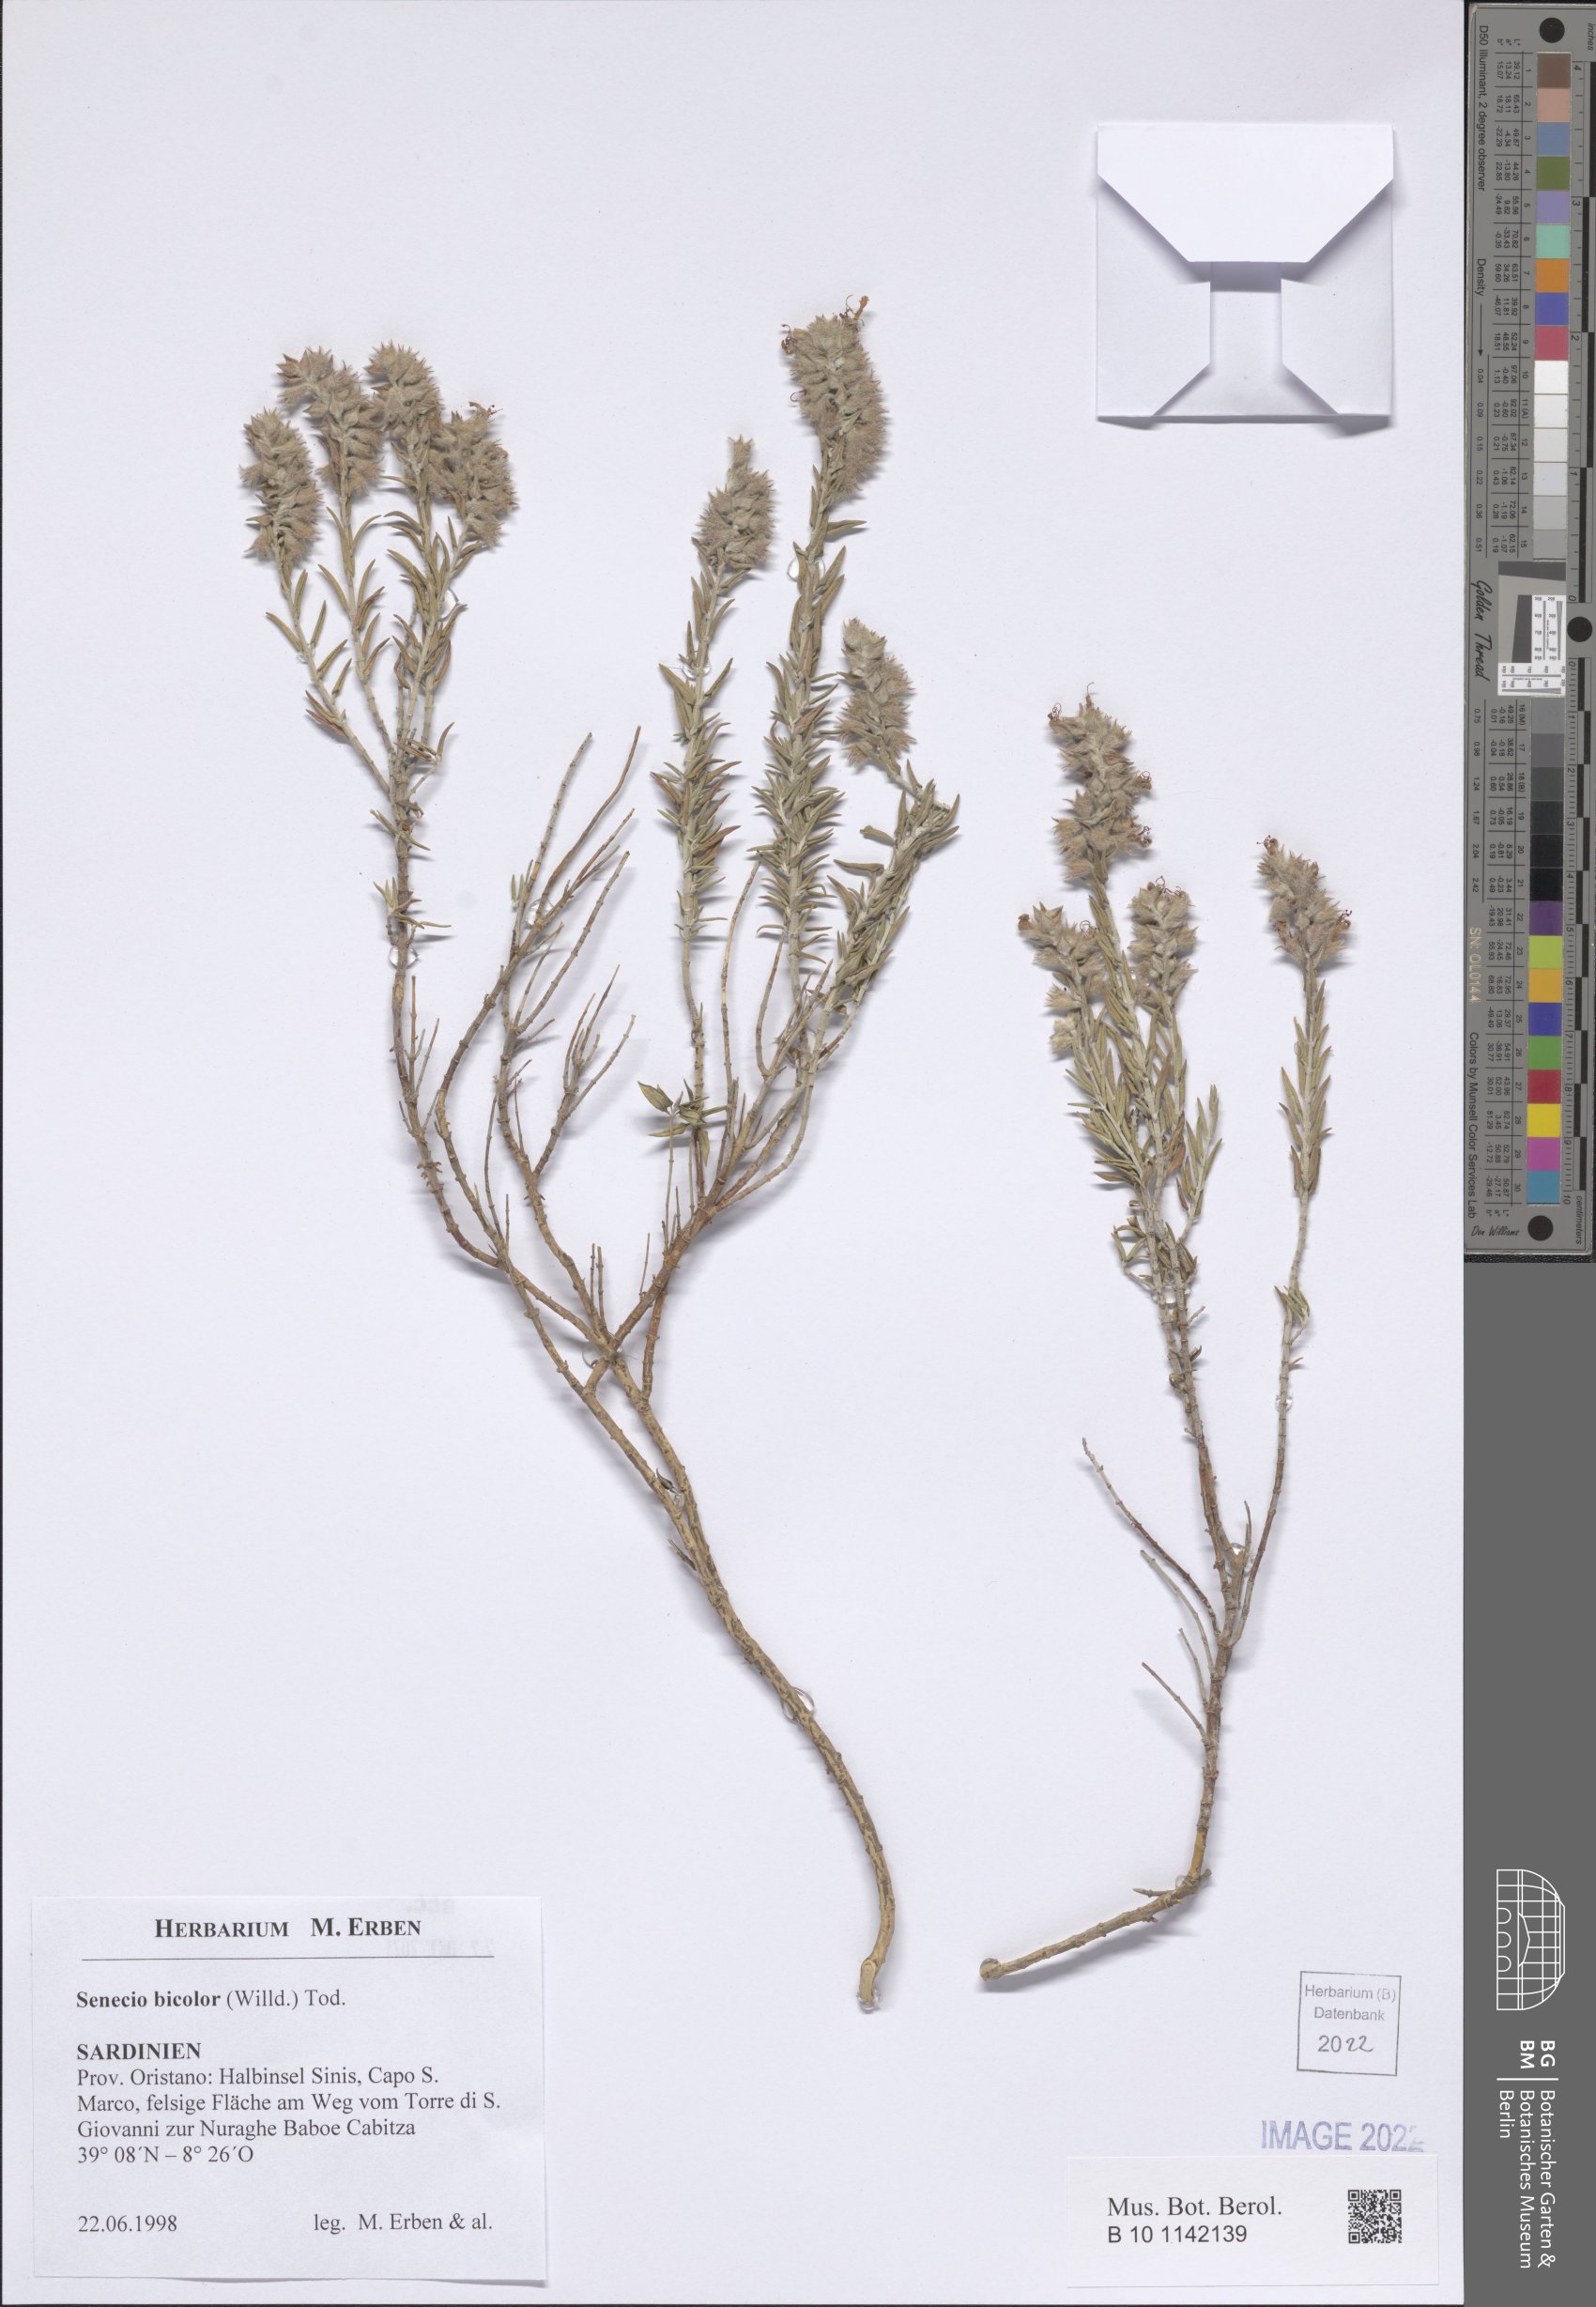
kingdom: Plantae
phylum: Tracheophyta
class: Magnoliopsida
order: Lamiales
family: Lamiaceae
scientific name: Lamiaceae
